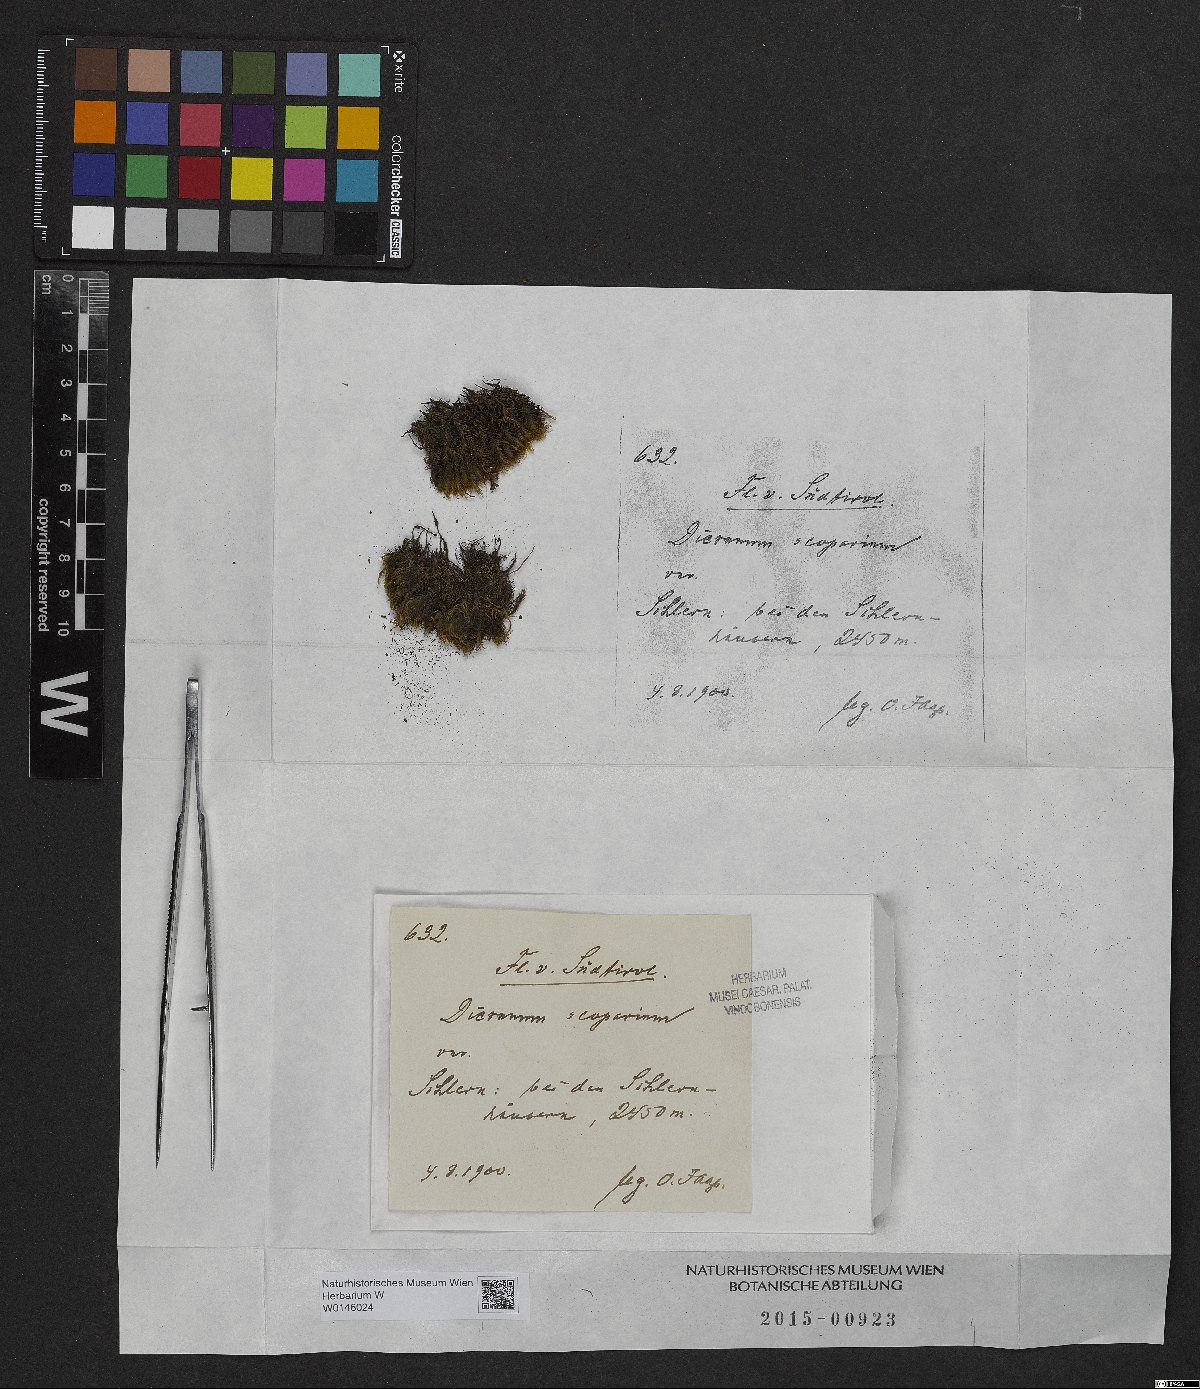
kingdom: Plantae
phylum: Bryophyta
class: Bryopsida
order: Dicranales
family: Dicranaceae
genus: Dicranum
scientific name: Dicranum scoparium
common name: Broom fork-moss
